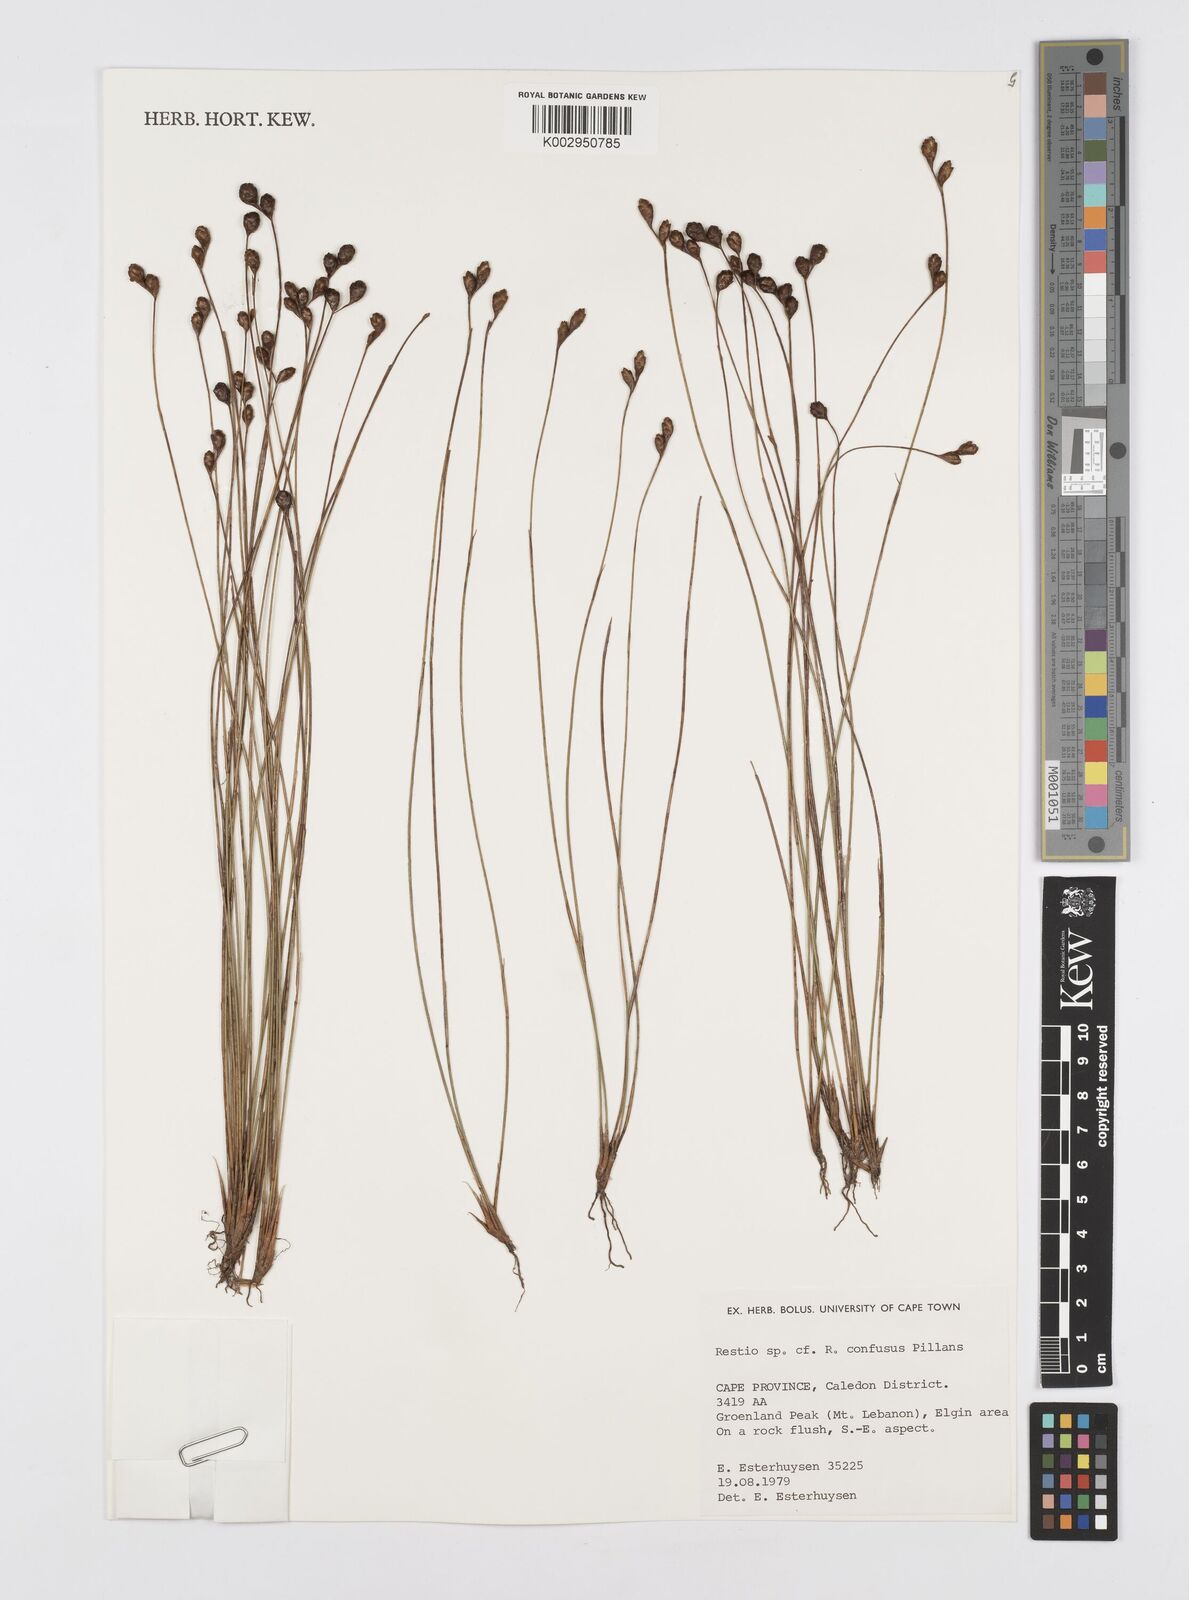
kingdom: Plantae
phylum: Tracheophyta
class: Liliopsida
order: Poales
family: Restionaceae
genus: Restio
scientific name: Restio confusus
